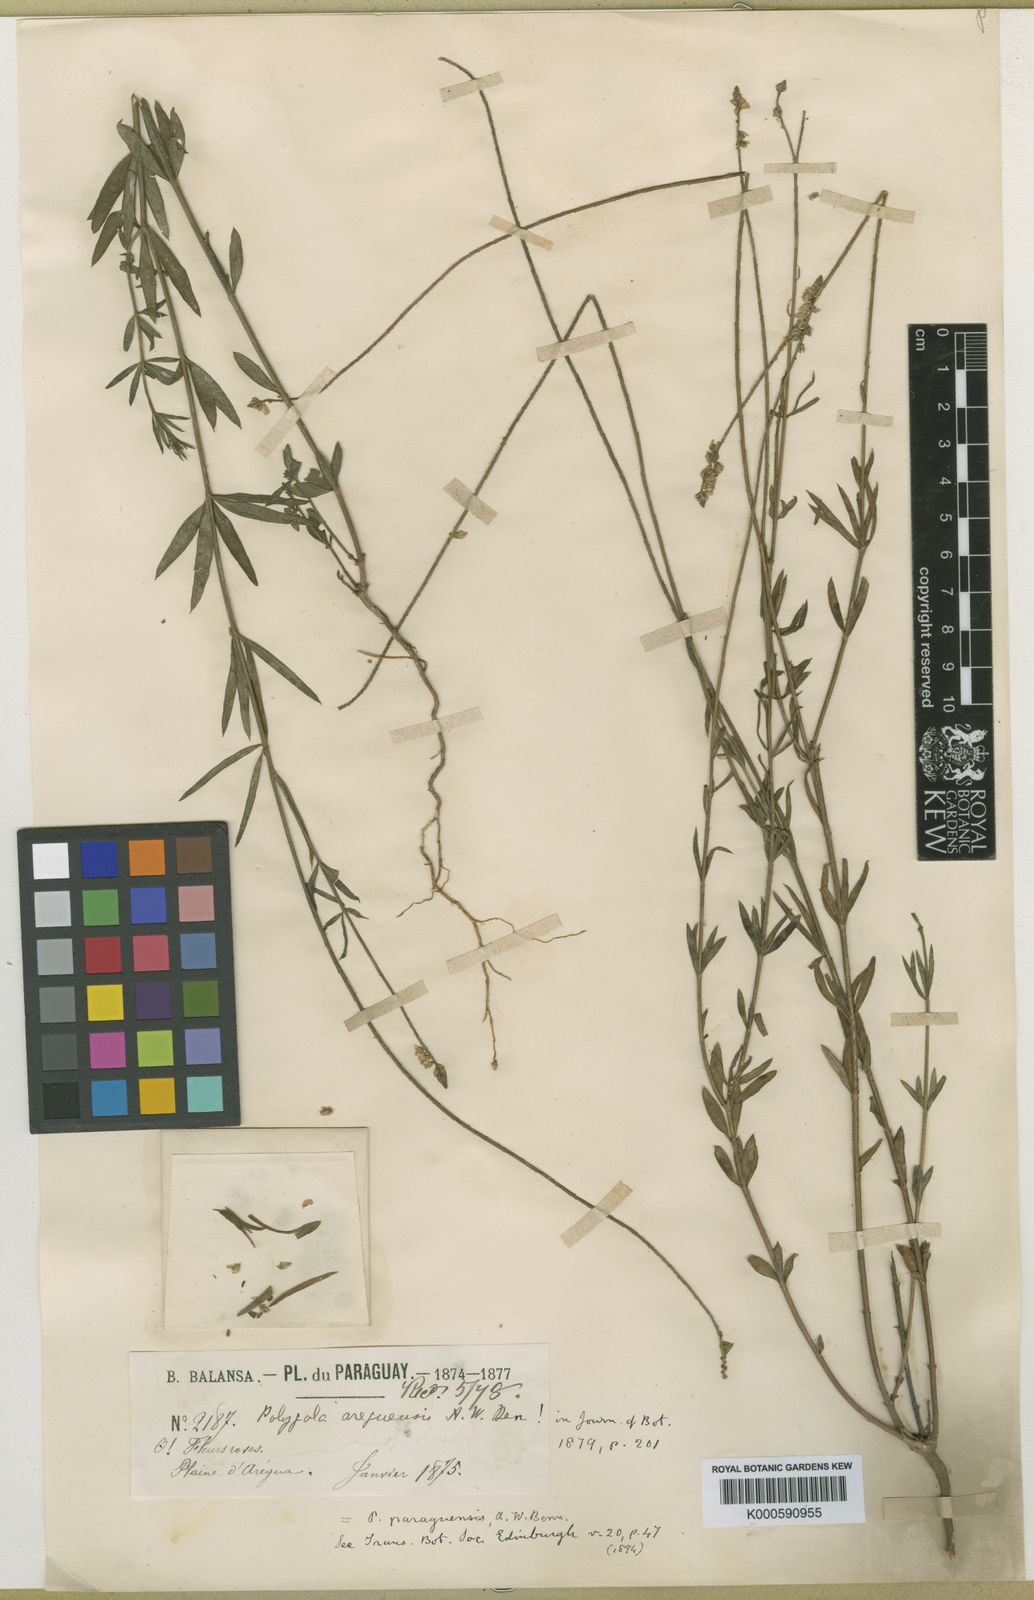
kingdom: Plantae
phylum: Tracheophyta
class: Magnoliopsida
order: Fabales
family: Polygalaceae
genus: Polygala
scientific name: Polygala molluginifolia
